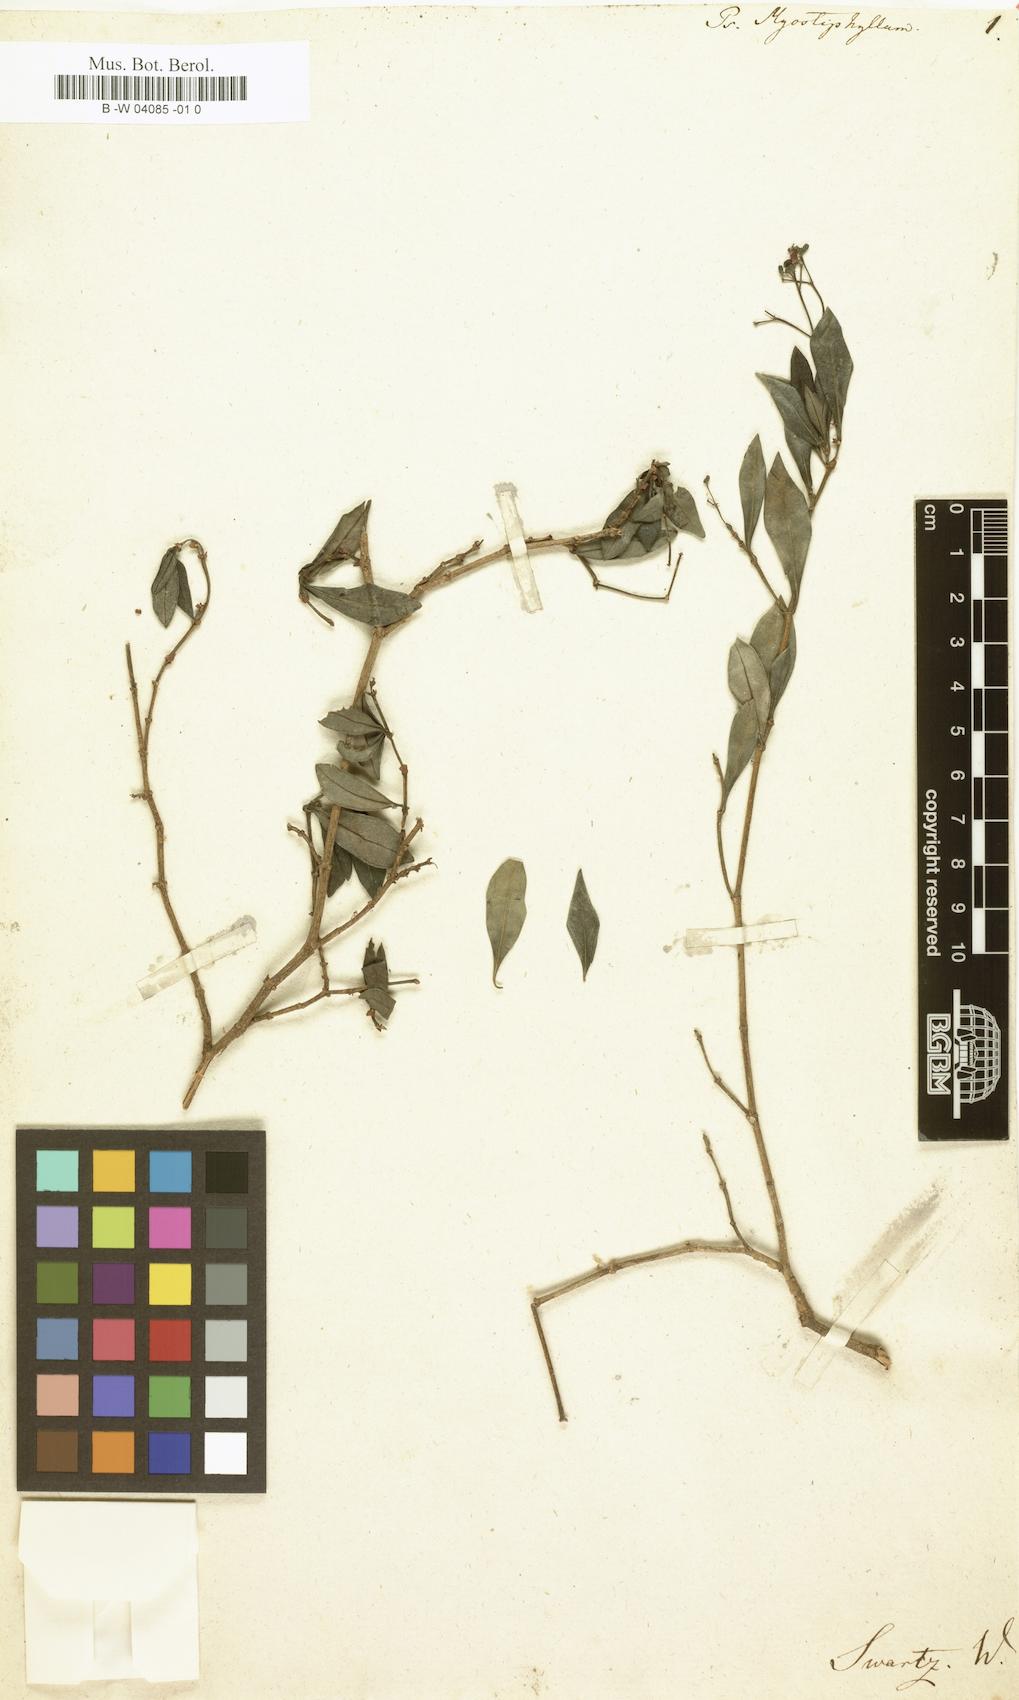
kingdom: Plantae
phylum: Tracheophyta
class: Magnoliopsida
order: Gentianales
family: Rubiaceae
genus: Psychotria
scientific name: Psychotria myrstiphyllum
